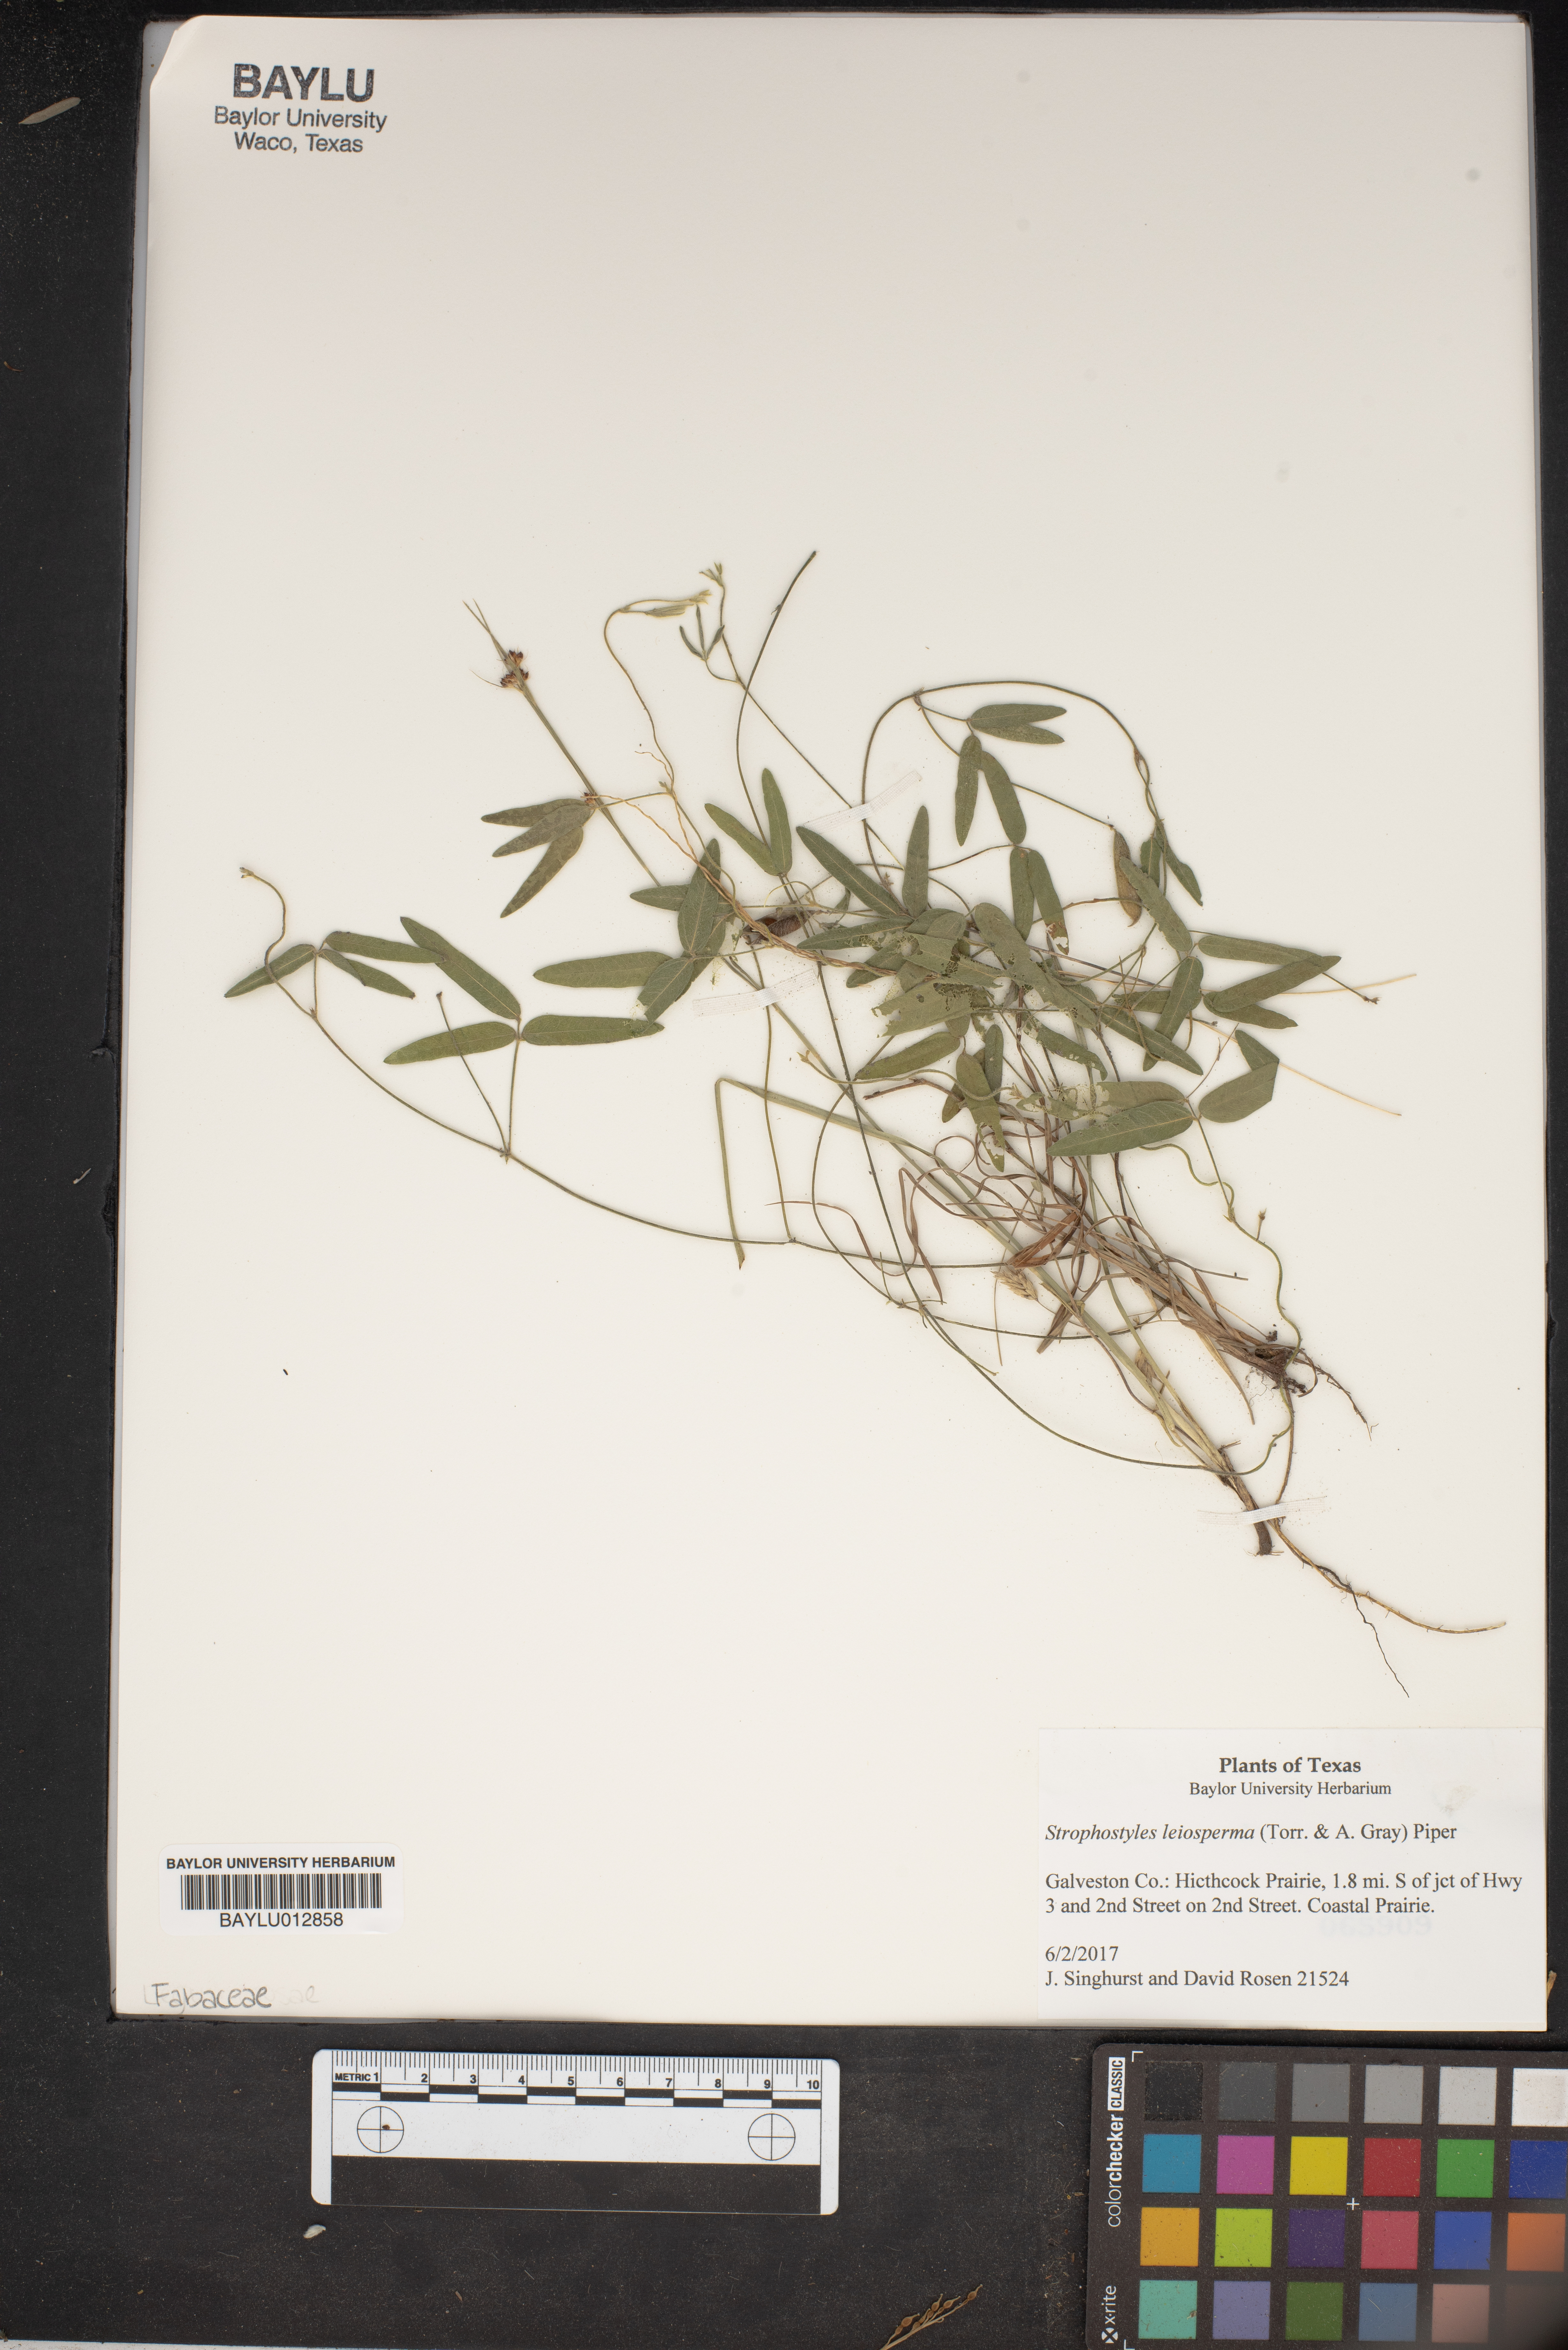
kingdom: Plantae
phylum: Tracheophyta
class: Magnoliopsida
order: Fabales
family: Fabaceae
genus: Strophostyles
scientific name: Strophostyles leiosperma
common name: Smooth-seed wild bean
